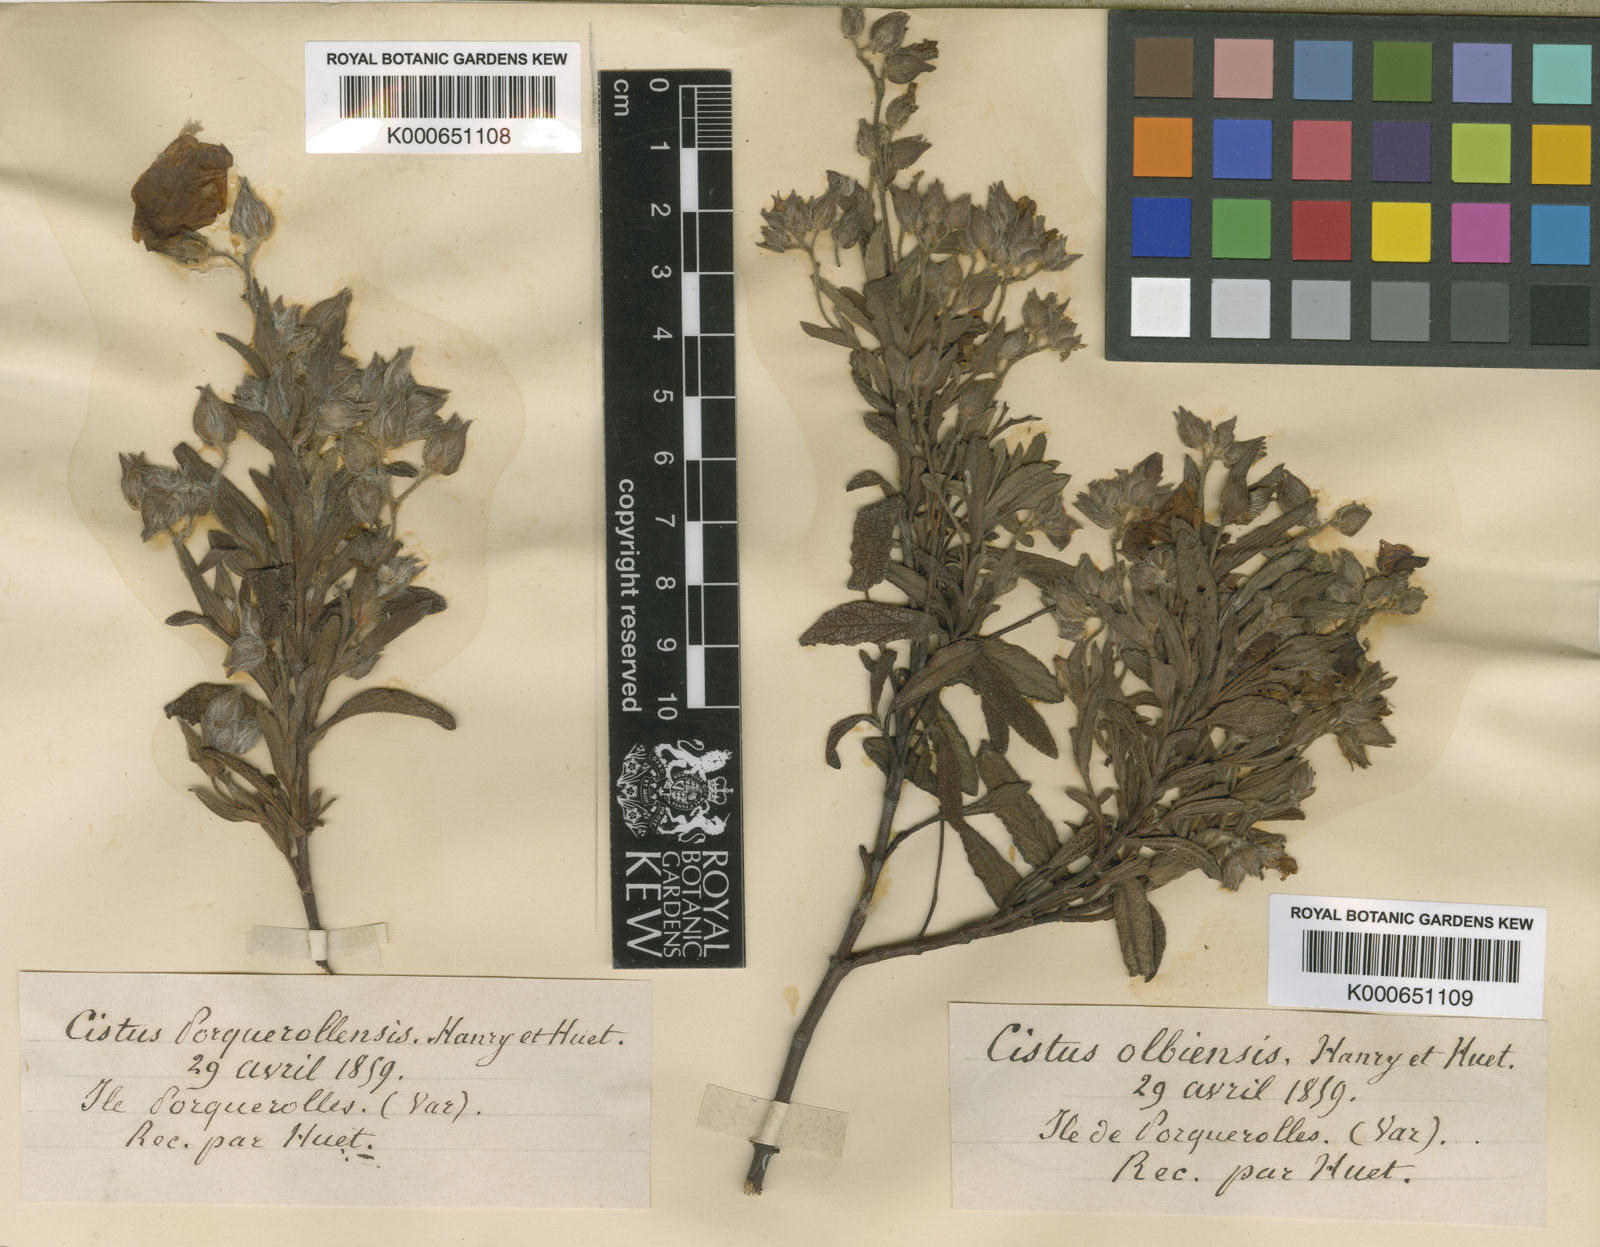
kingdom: Plantae
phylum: Tracheophyta
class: Magnoliopsida
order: Malvales
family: Cistaceae
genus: Cistus
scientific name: Cistus florentinus
